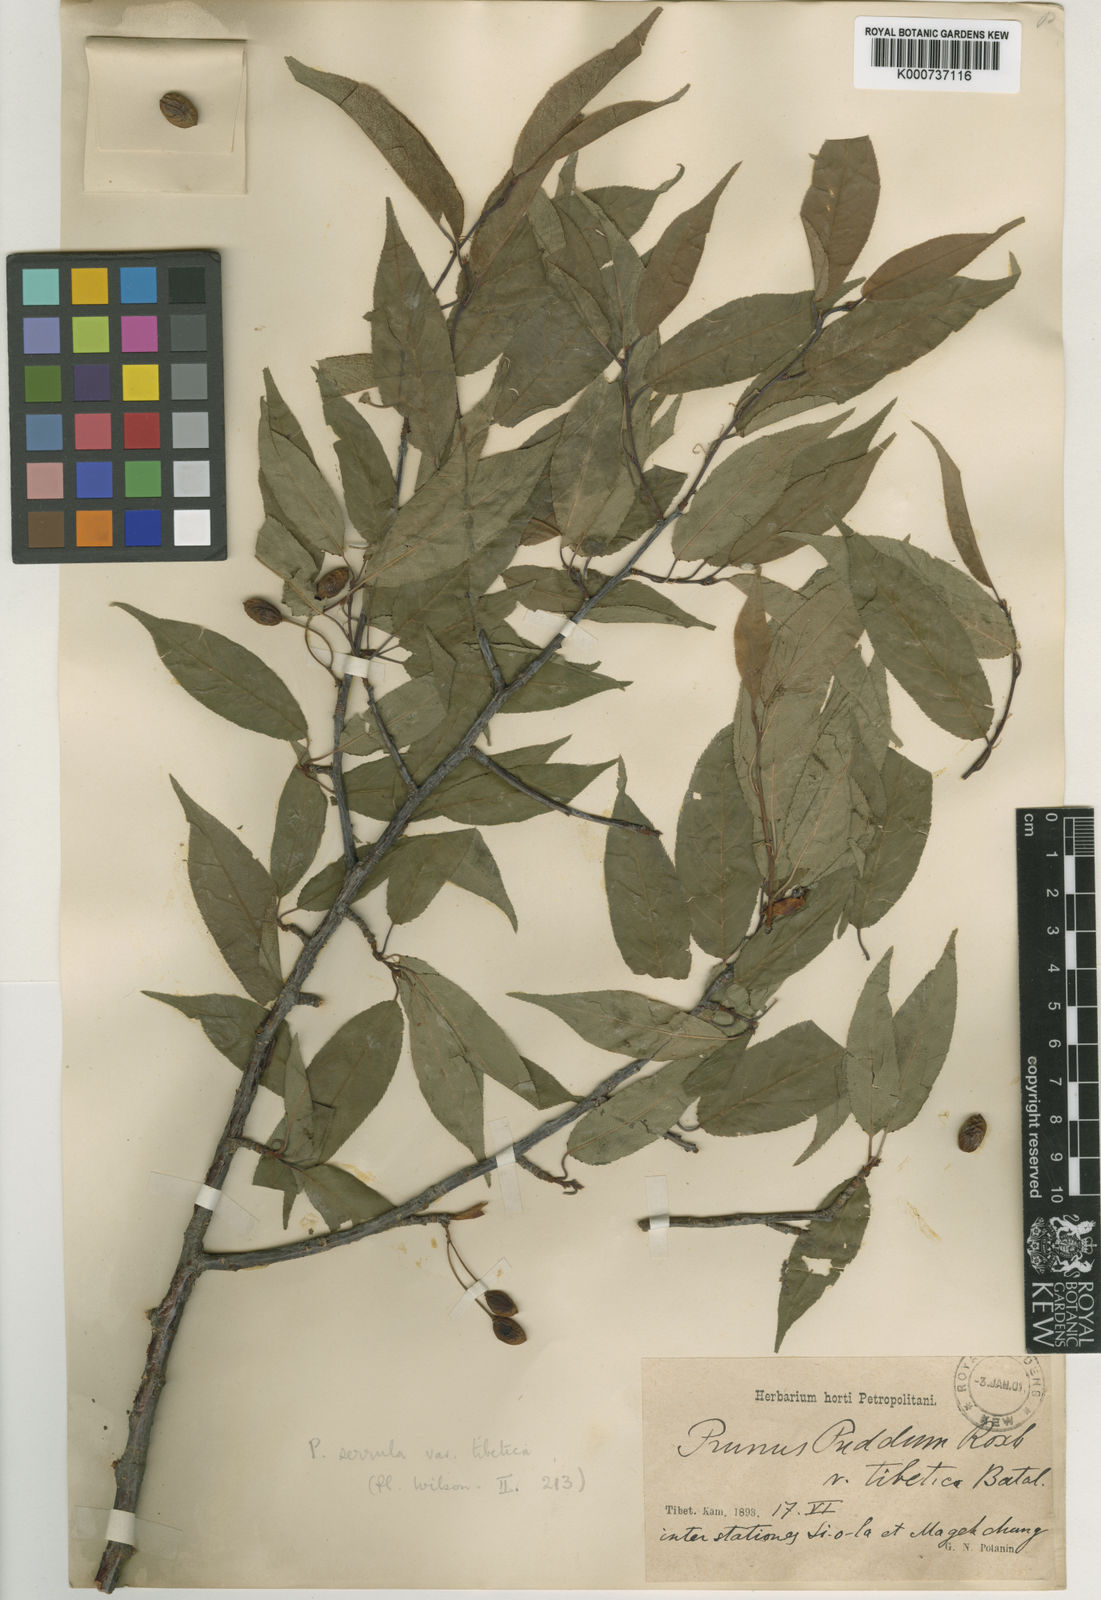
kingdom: Plantae
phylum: Tracheophyta
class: Magnoliopsida
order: Rosales
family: Rosaceae
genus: Prunus
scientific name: Prunus serrula
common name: Birchbark cherry
